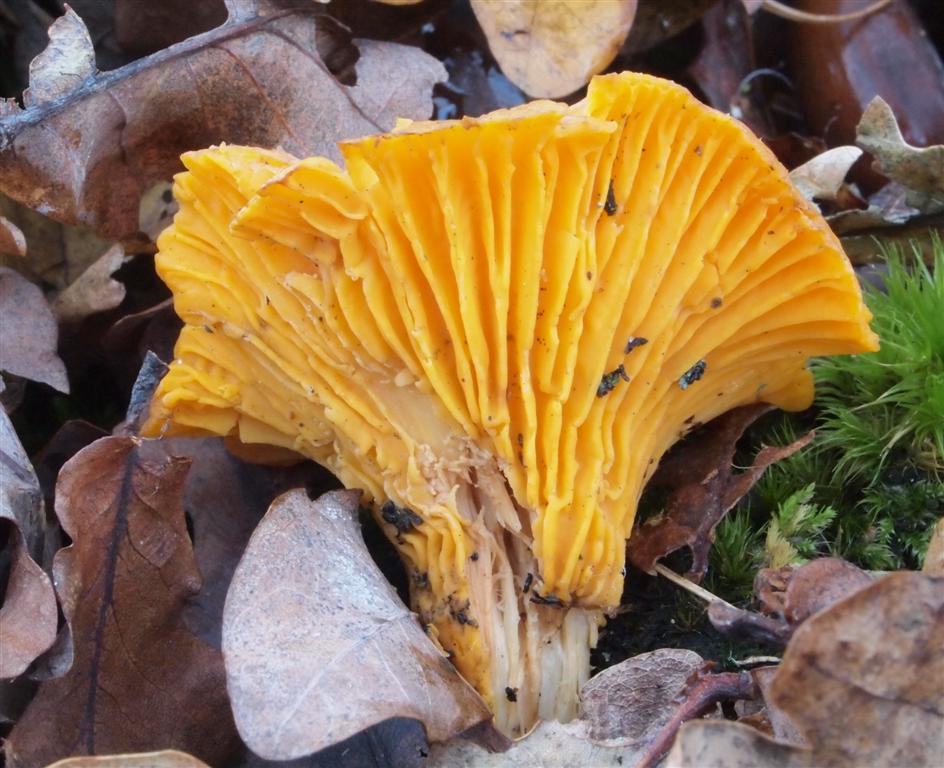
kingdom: Fungi
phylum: Basidiomycota
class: Agaricomycetes
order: Cantharellales
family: Hydnaceae
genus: Cantharellus
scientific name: Cantharellus cibarius
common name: almindelig kantarel
